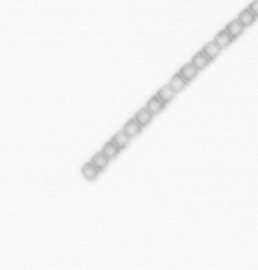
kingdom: Chromista
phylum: Ochrophyta
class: Bacillariophyceae
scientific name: Bacillariophyceae
